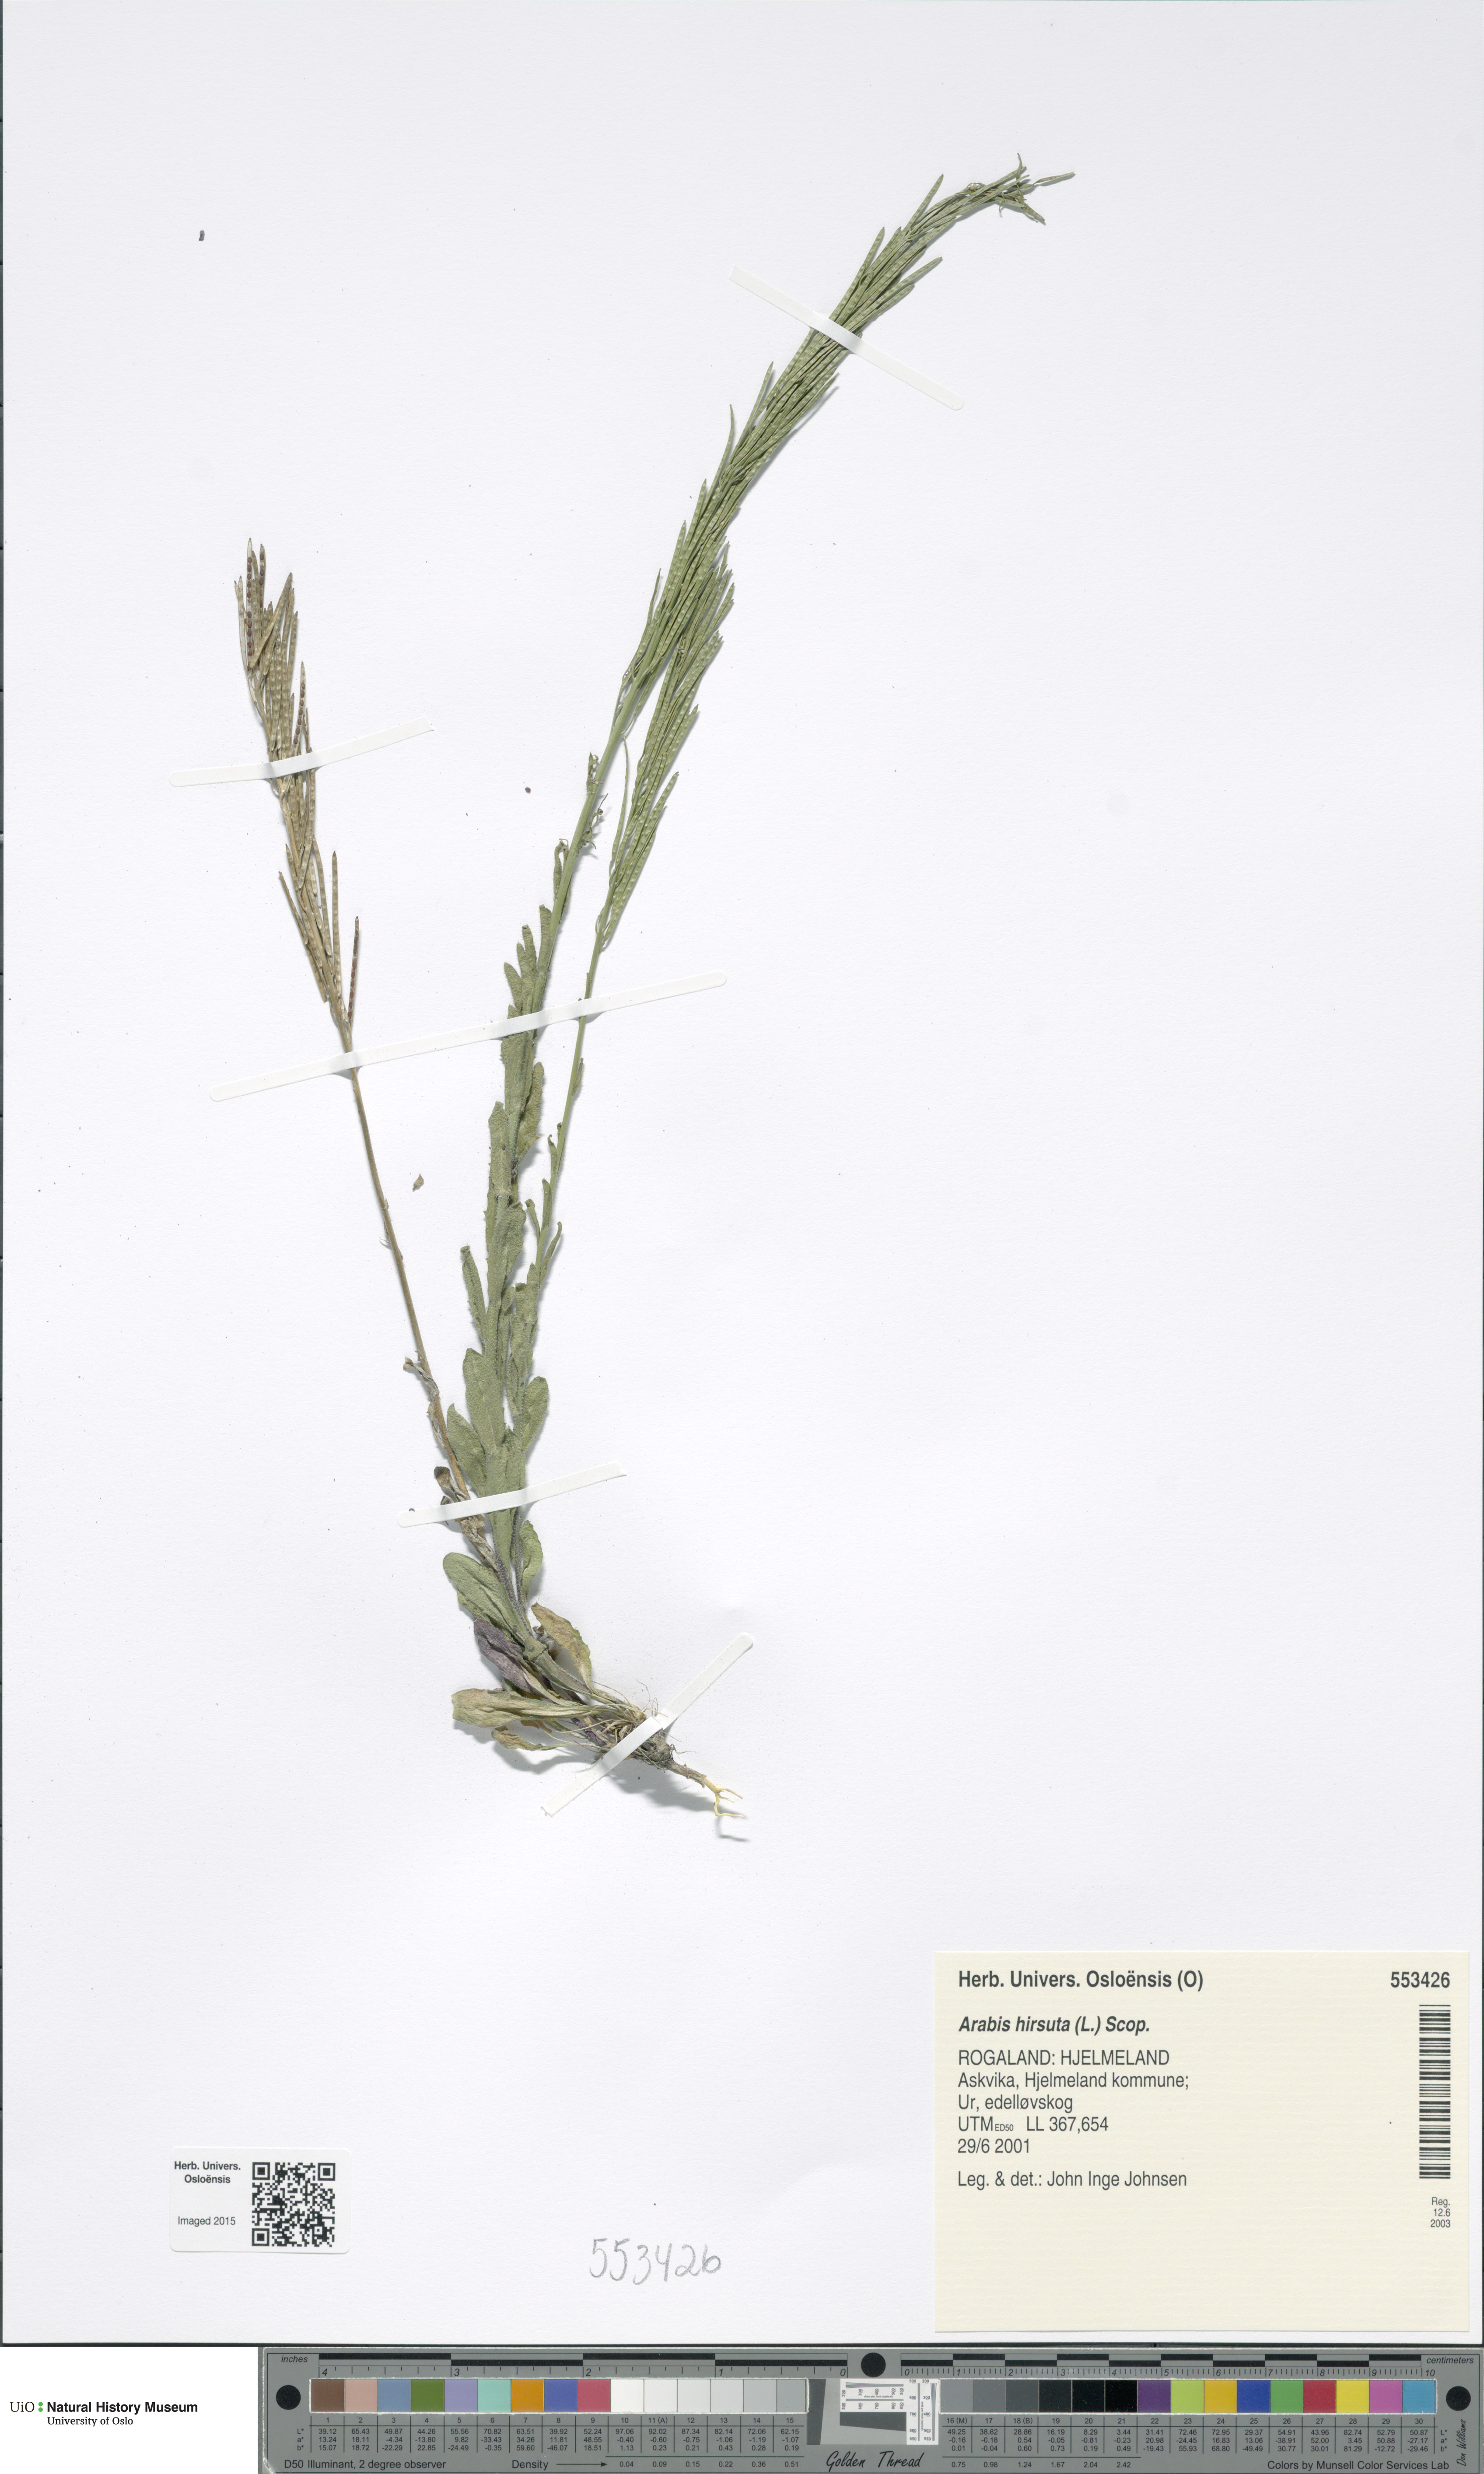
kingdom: Plantae
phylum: Tracheophyta
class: Magnoliopsida
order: Brassicales
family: Brassicaceae
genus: Arabis
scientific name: Arabis hirsuta
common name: Hairy rock-cress
